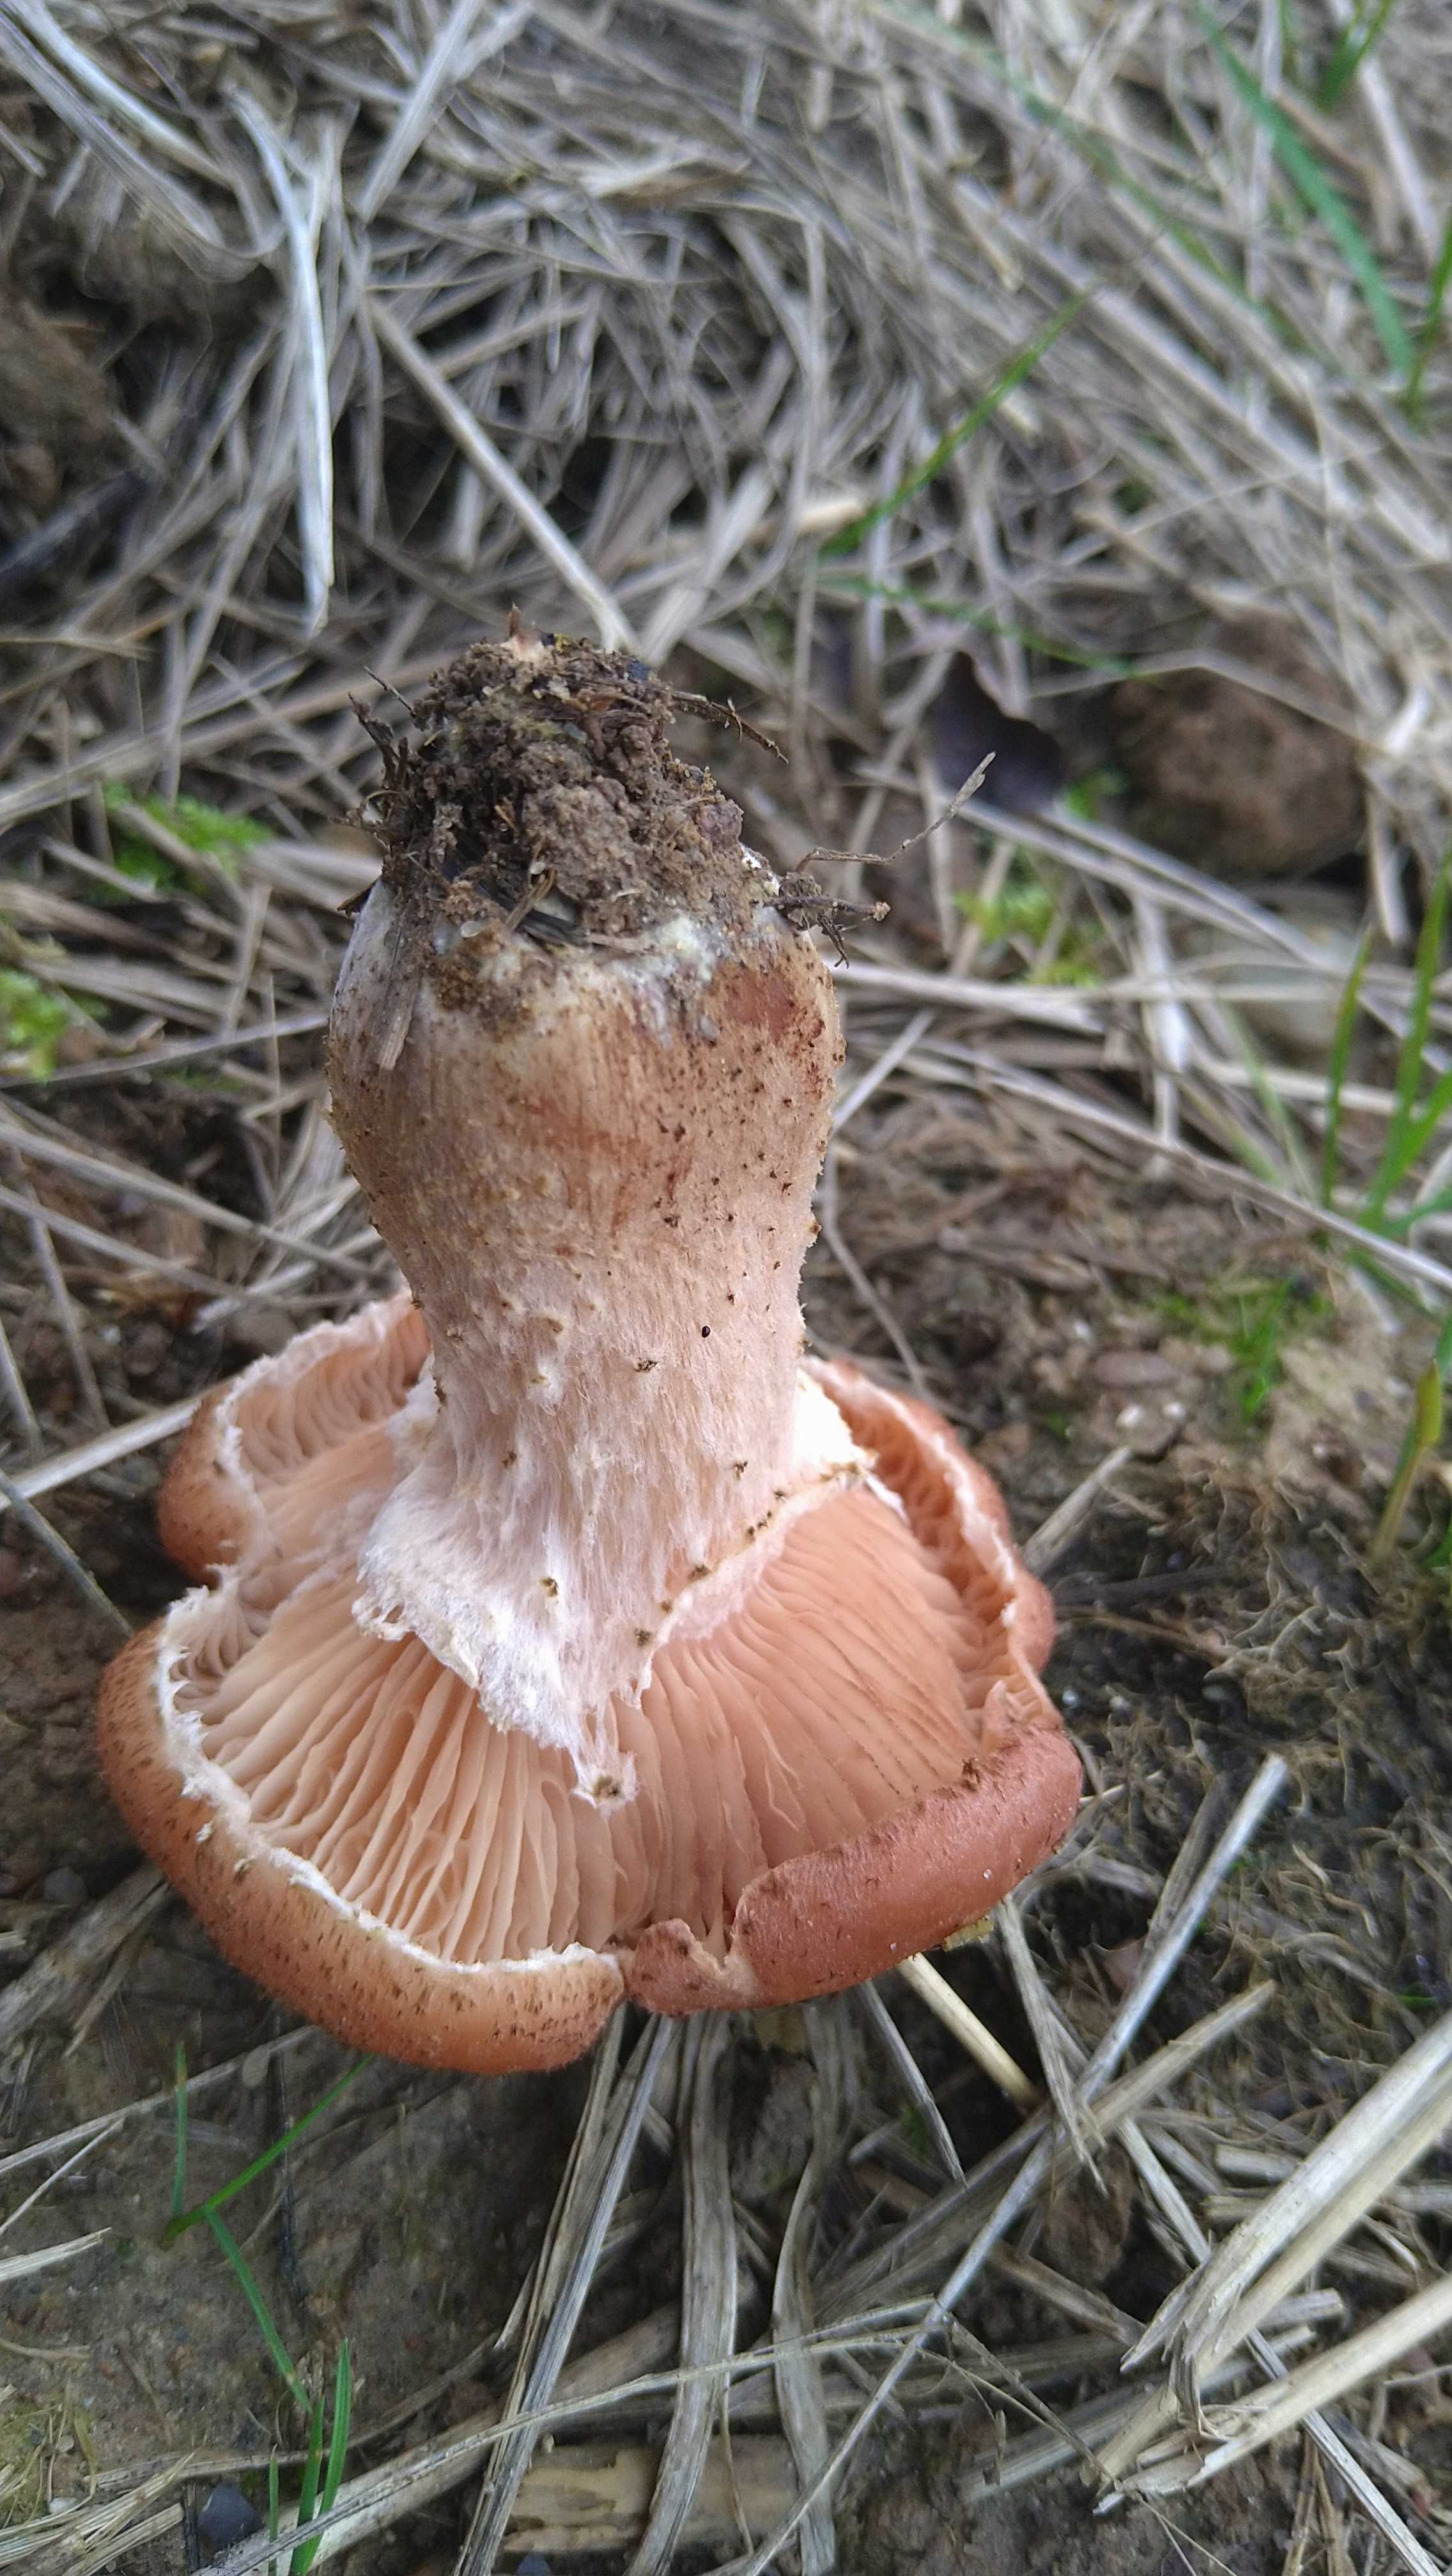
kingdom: Fungi
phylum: Basidiomycota
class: Agaricomycetes
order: Agaricales
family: Physalacriaceae
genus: Armillaria
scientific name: Armillaria ostoyae
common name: mørk honningsvamp
